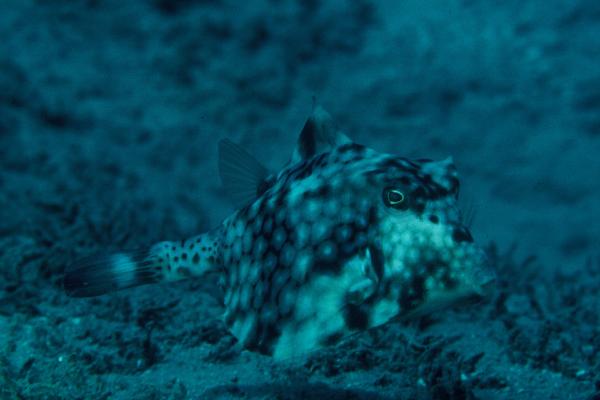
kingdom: Animalia
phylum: Chordata
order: Tetraodontiformes
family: Ostraciidae
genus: Tetrosomus
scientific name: Tetrosomus gibbosus
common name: Humpback turretfish
